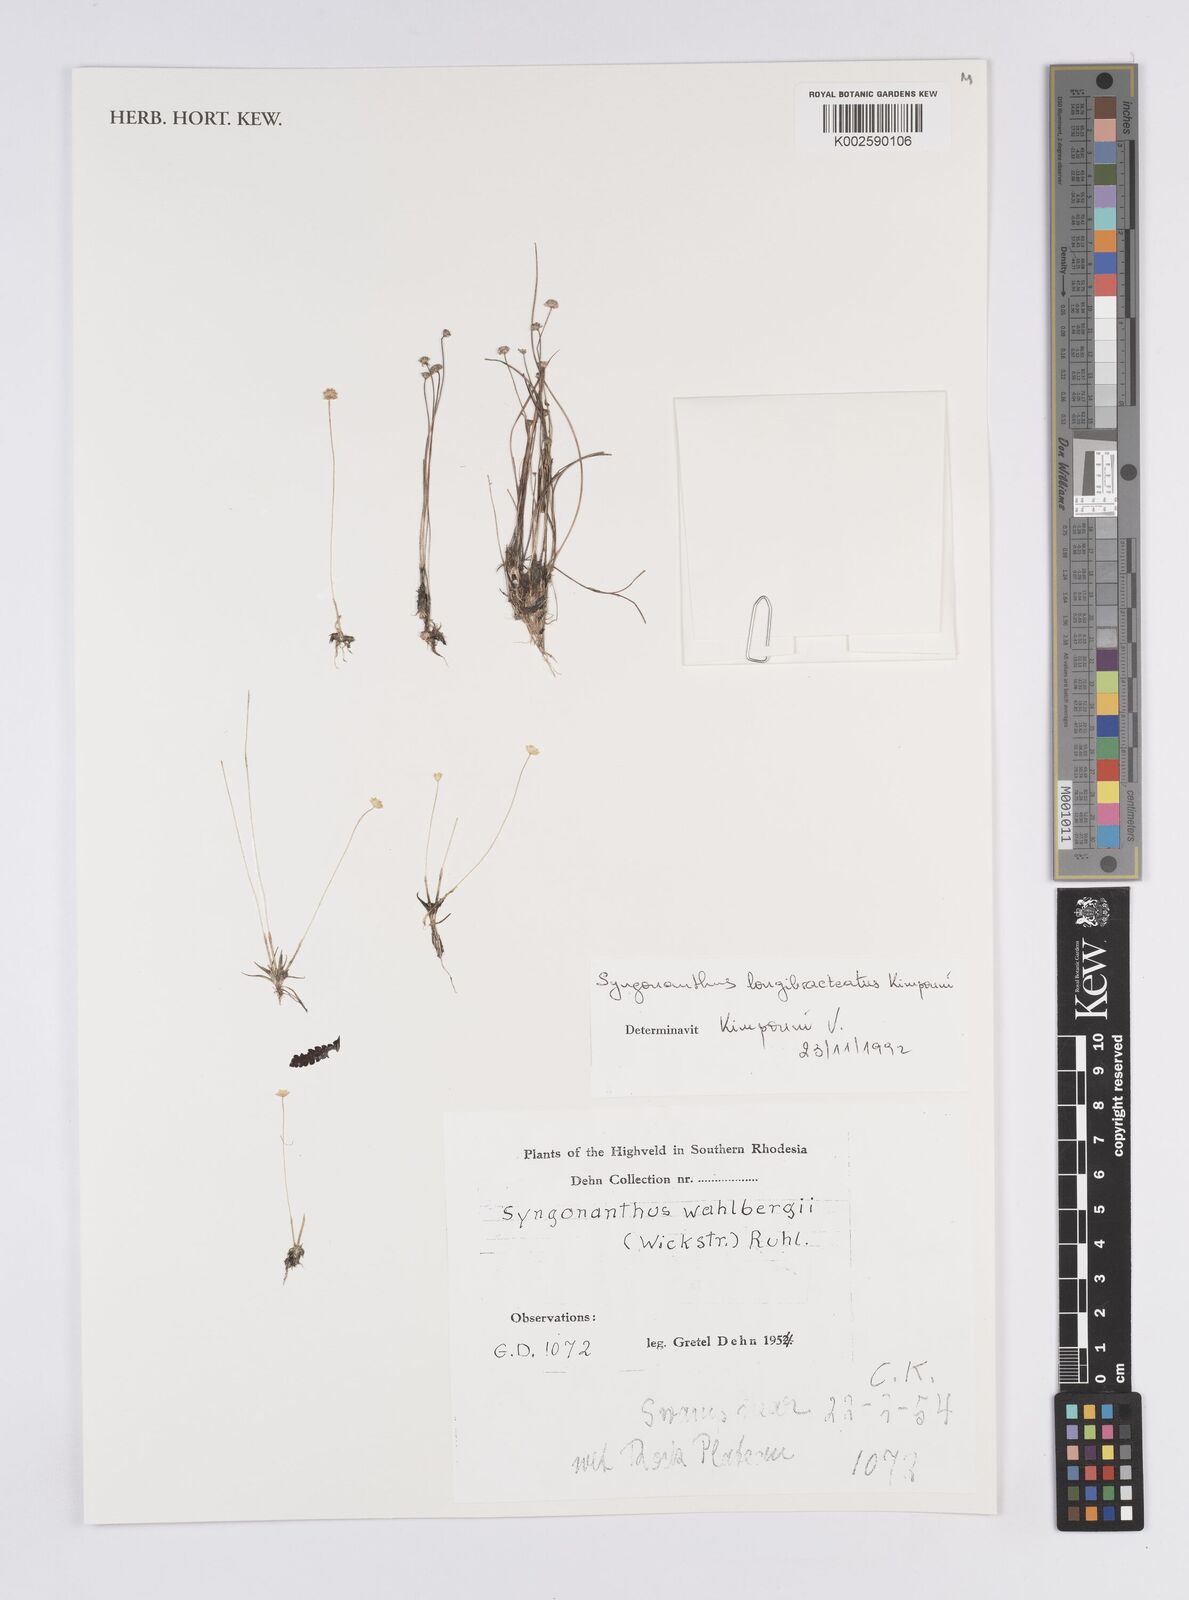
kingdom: Plantae
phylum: Tracheophyta
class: Liliopsida
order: Poales
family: Eriocaulaceae
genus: Syngonanthus
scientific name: Syngonanthus longibracteatus
